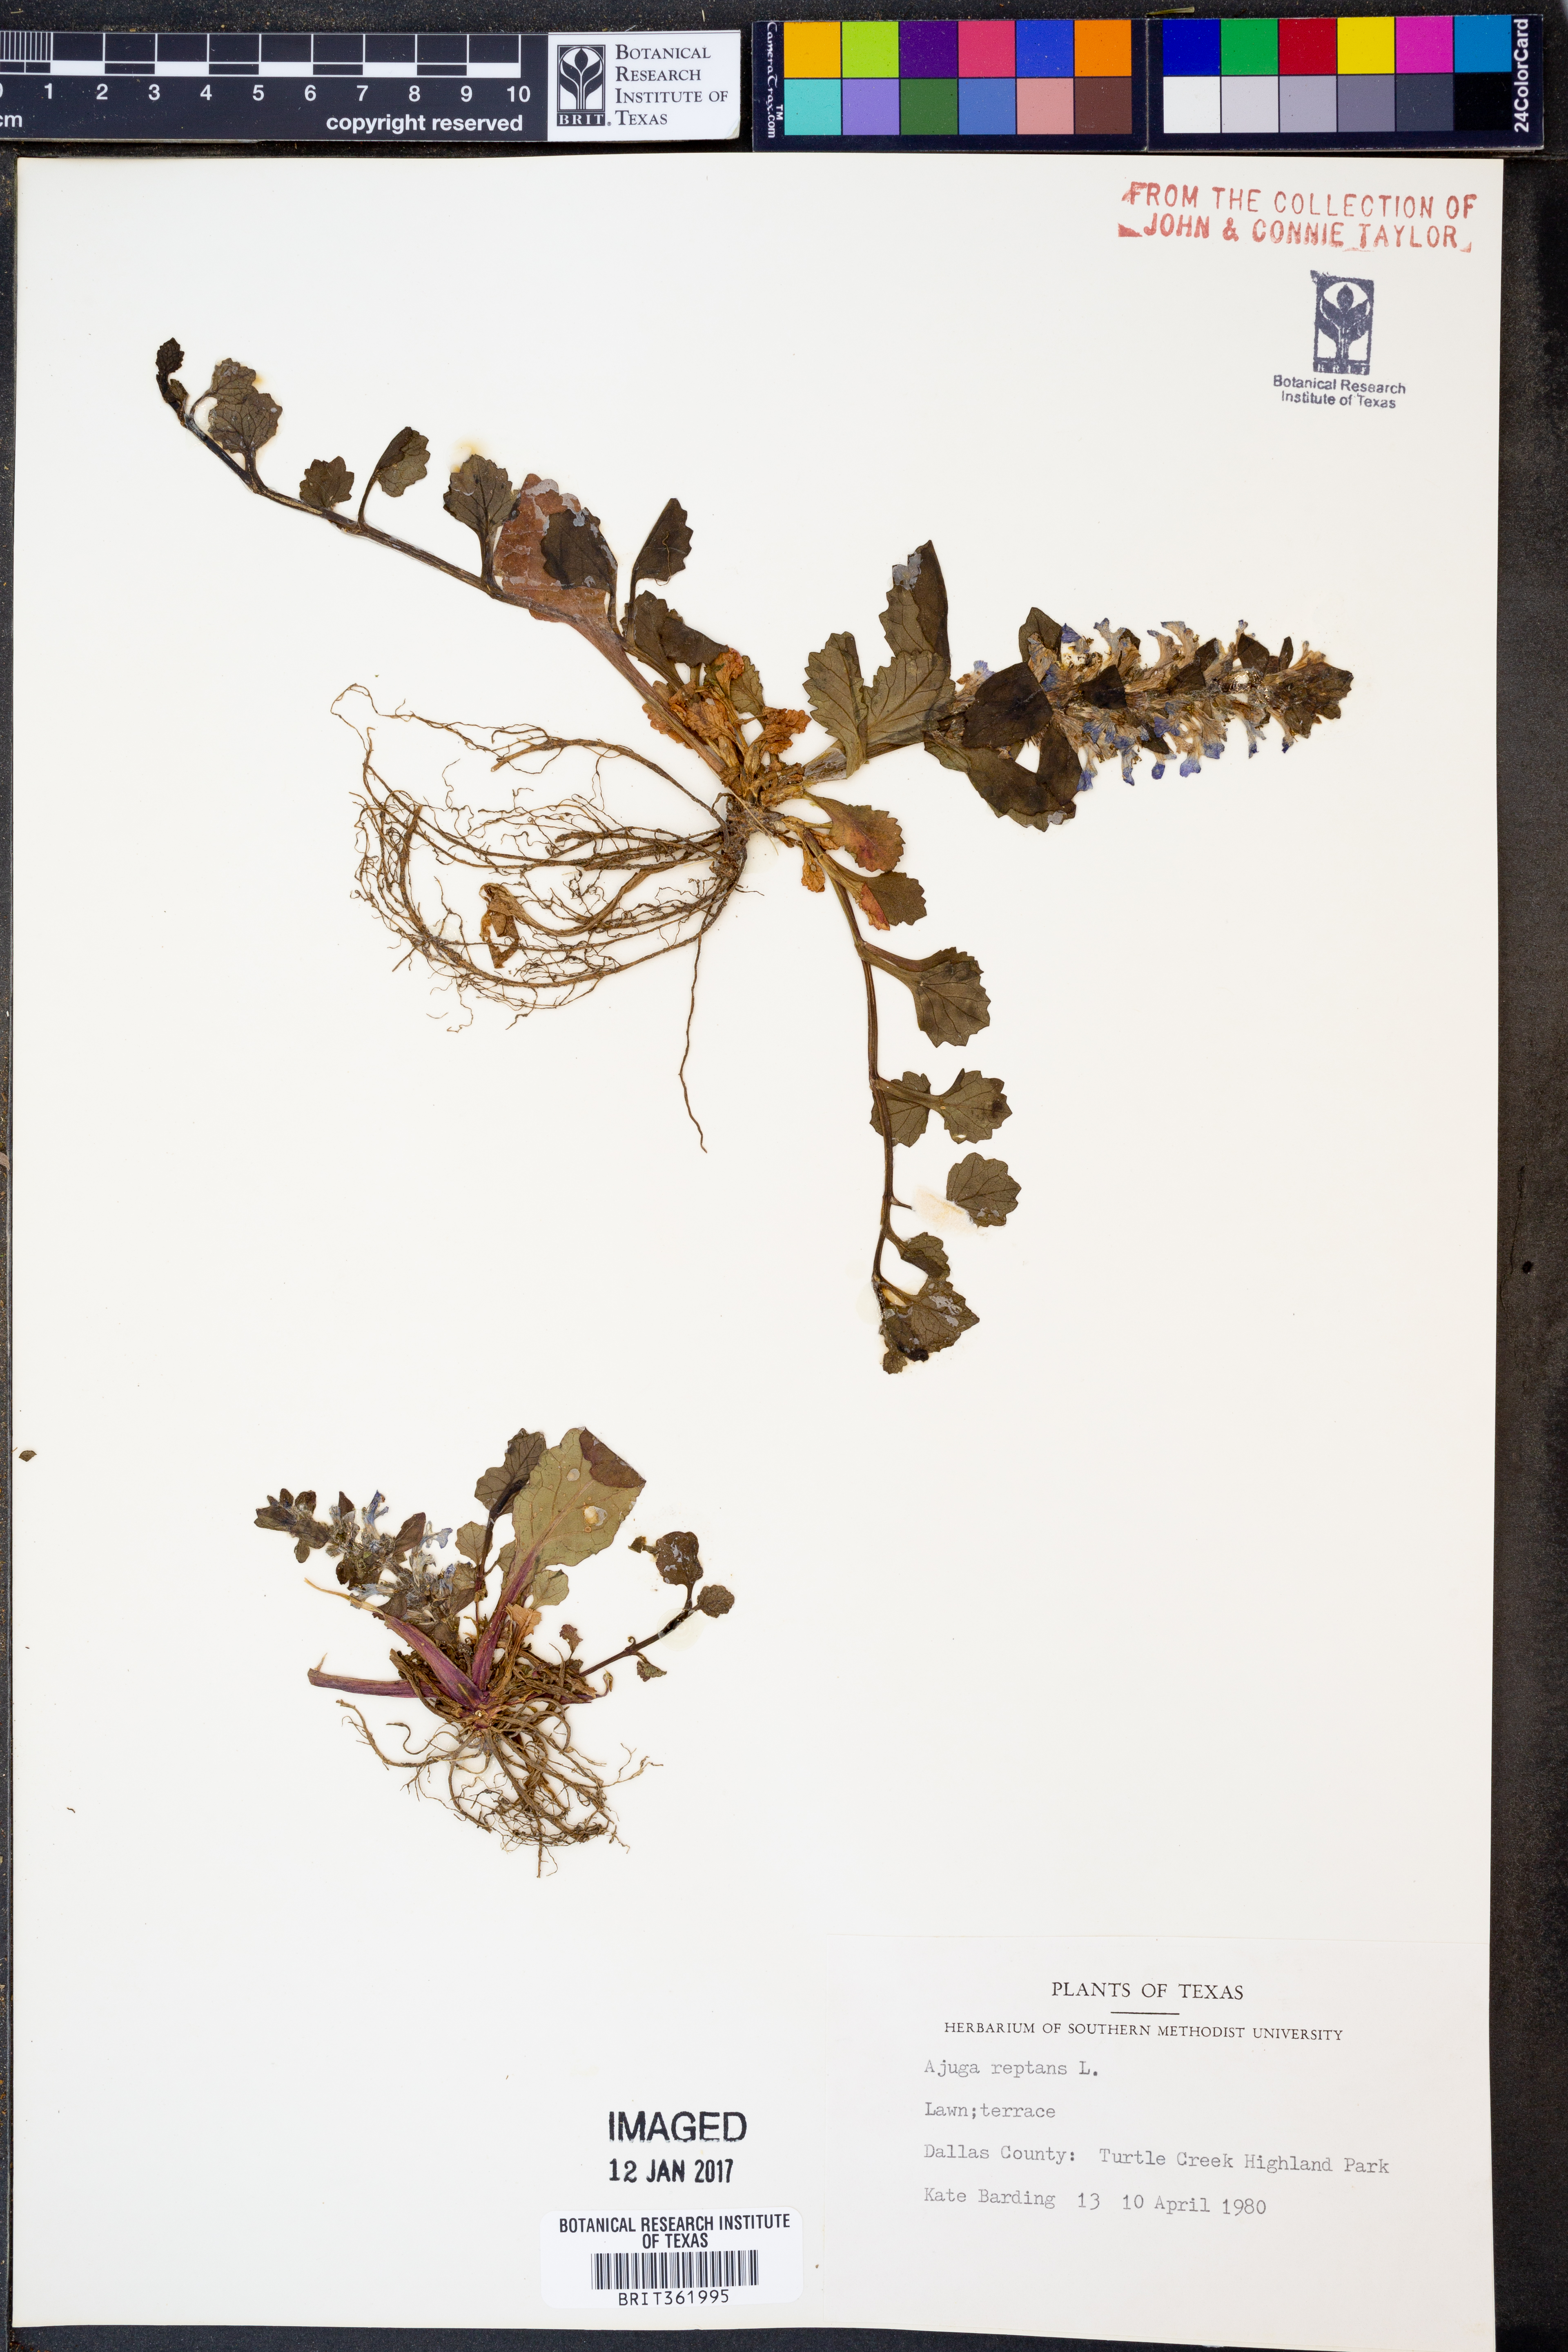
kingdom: Plantae
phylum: Tracheophyta
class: Magnoliopsida
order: Lamiales
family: Lamiaceae
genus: Ajuga
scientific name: Ajuga reptans
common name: Bugle
